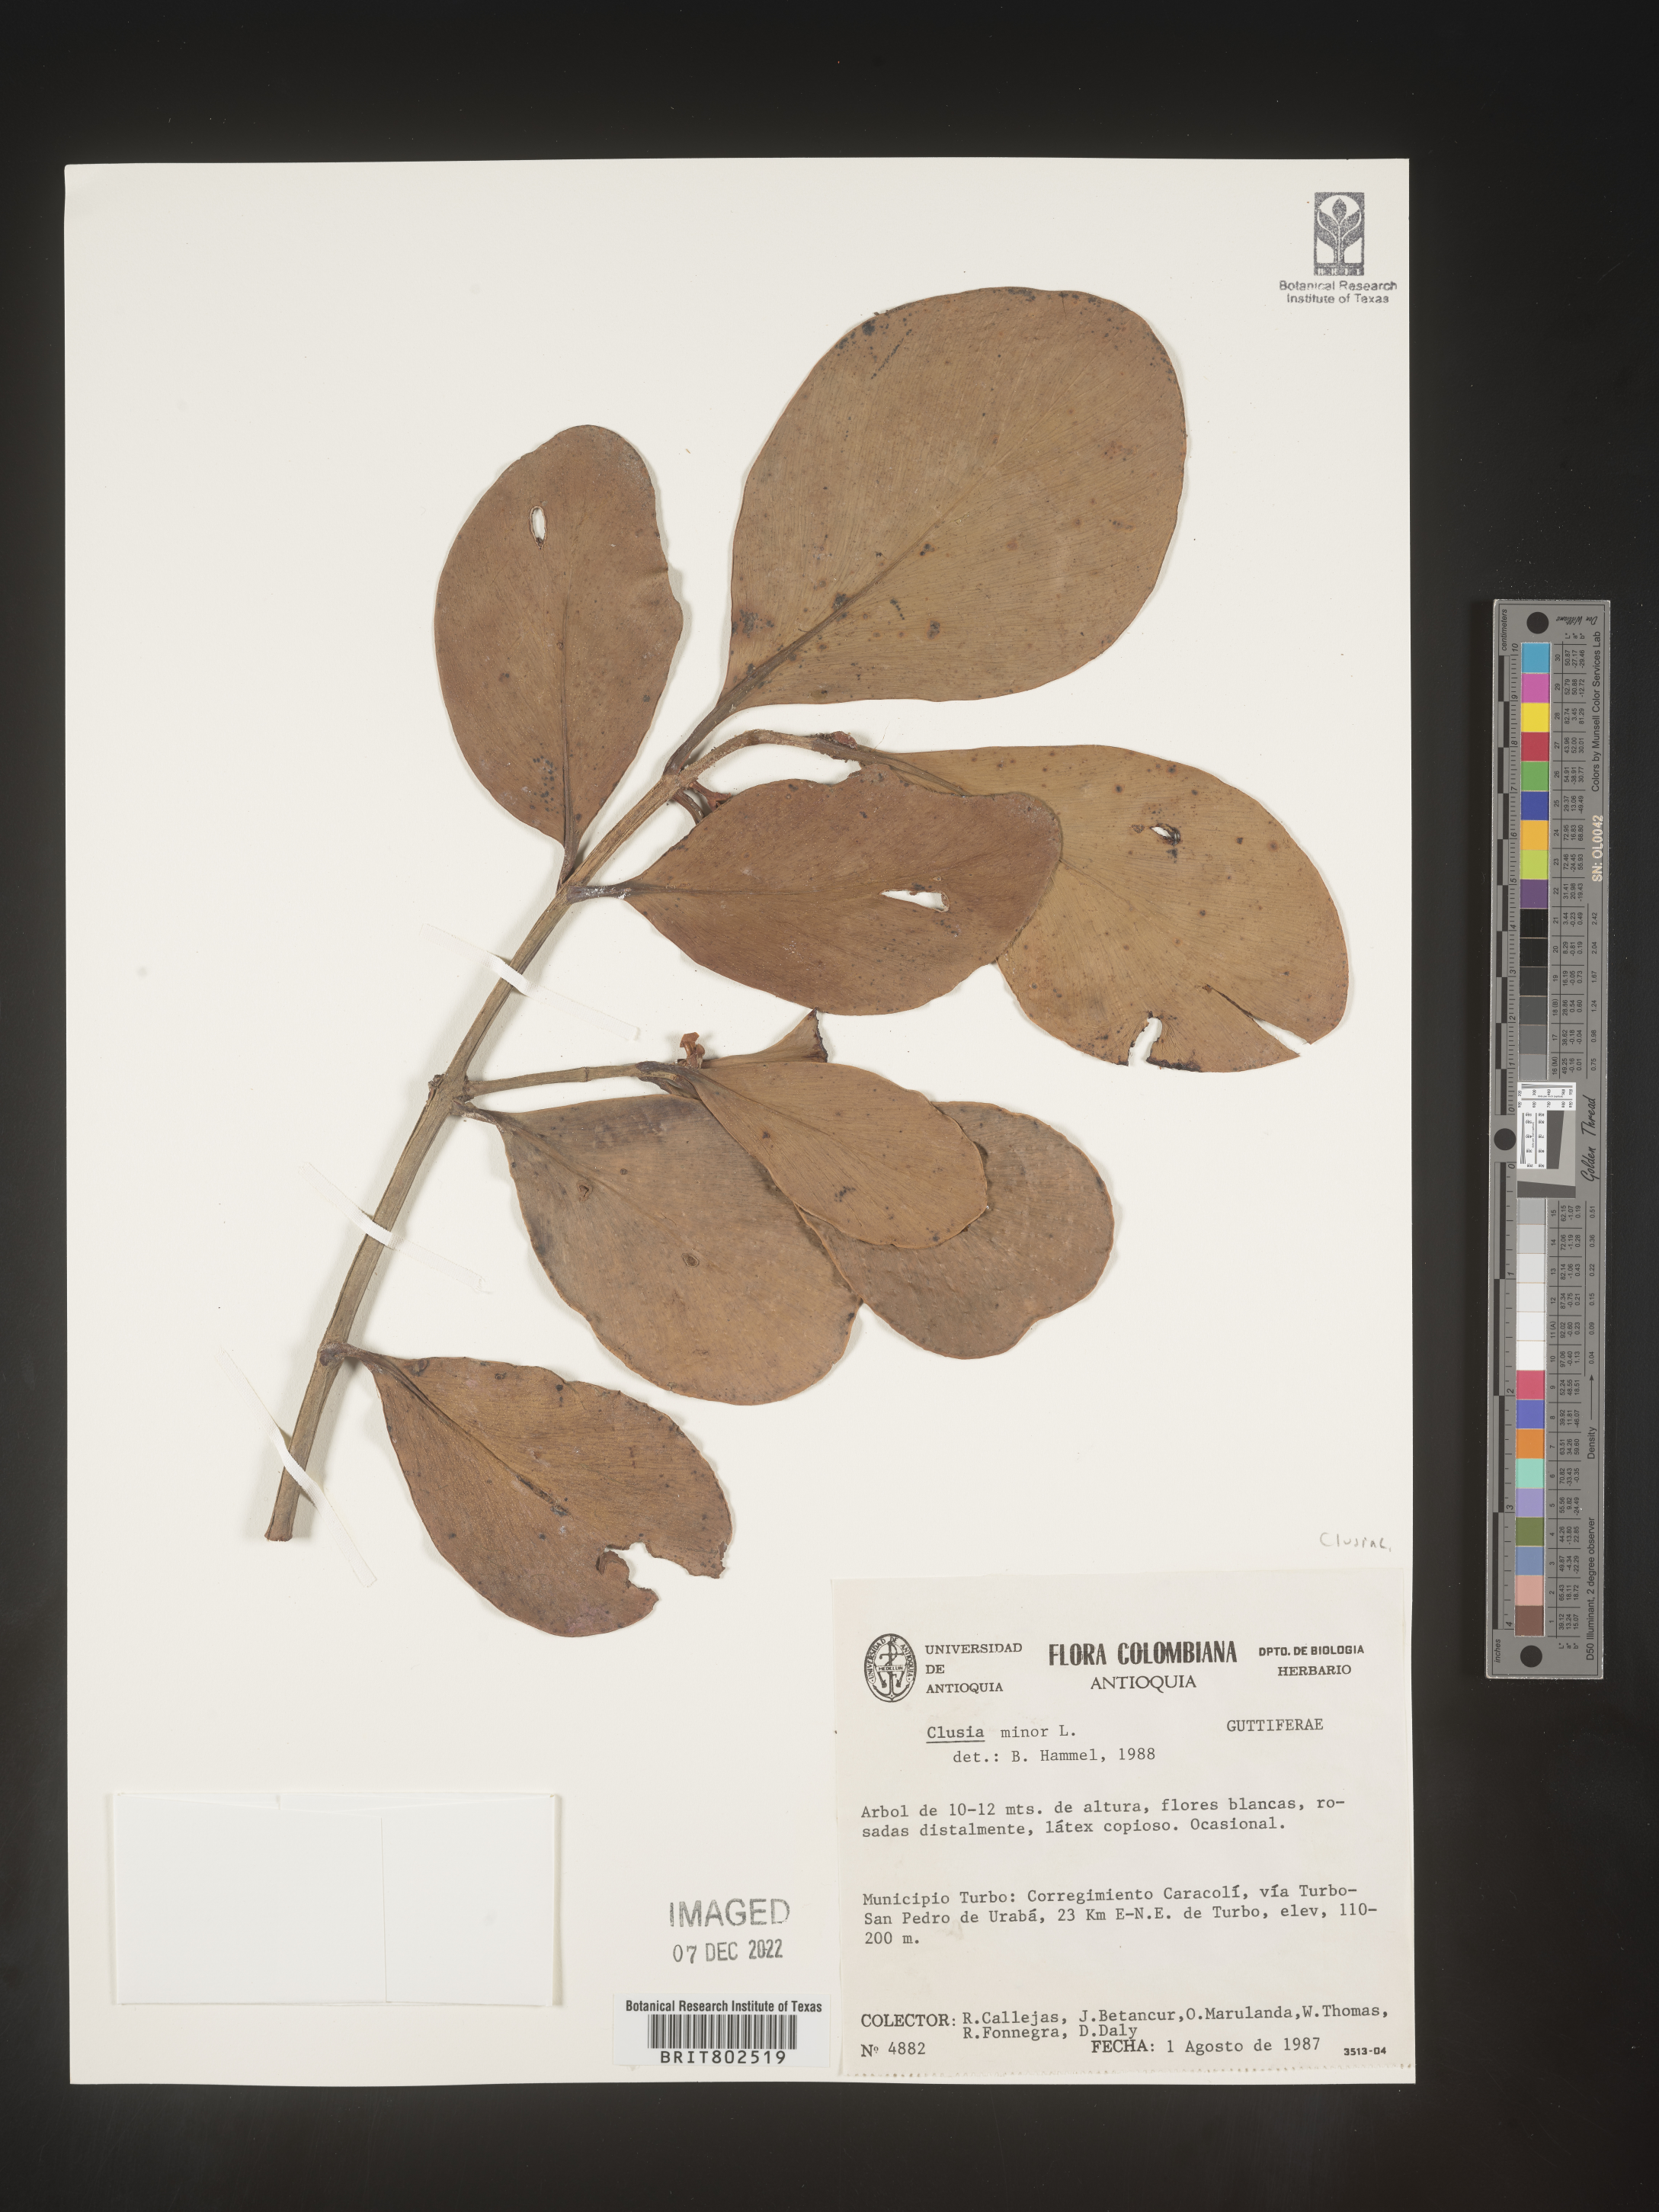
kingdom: Plantae
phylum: Tracheophyta
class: Magnoliopsida
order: Malpighiales
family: Clusiaceae
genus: Clusia
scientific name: Clusia minor
